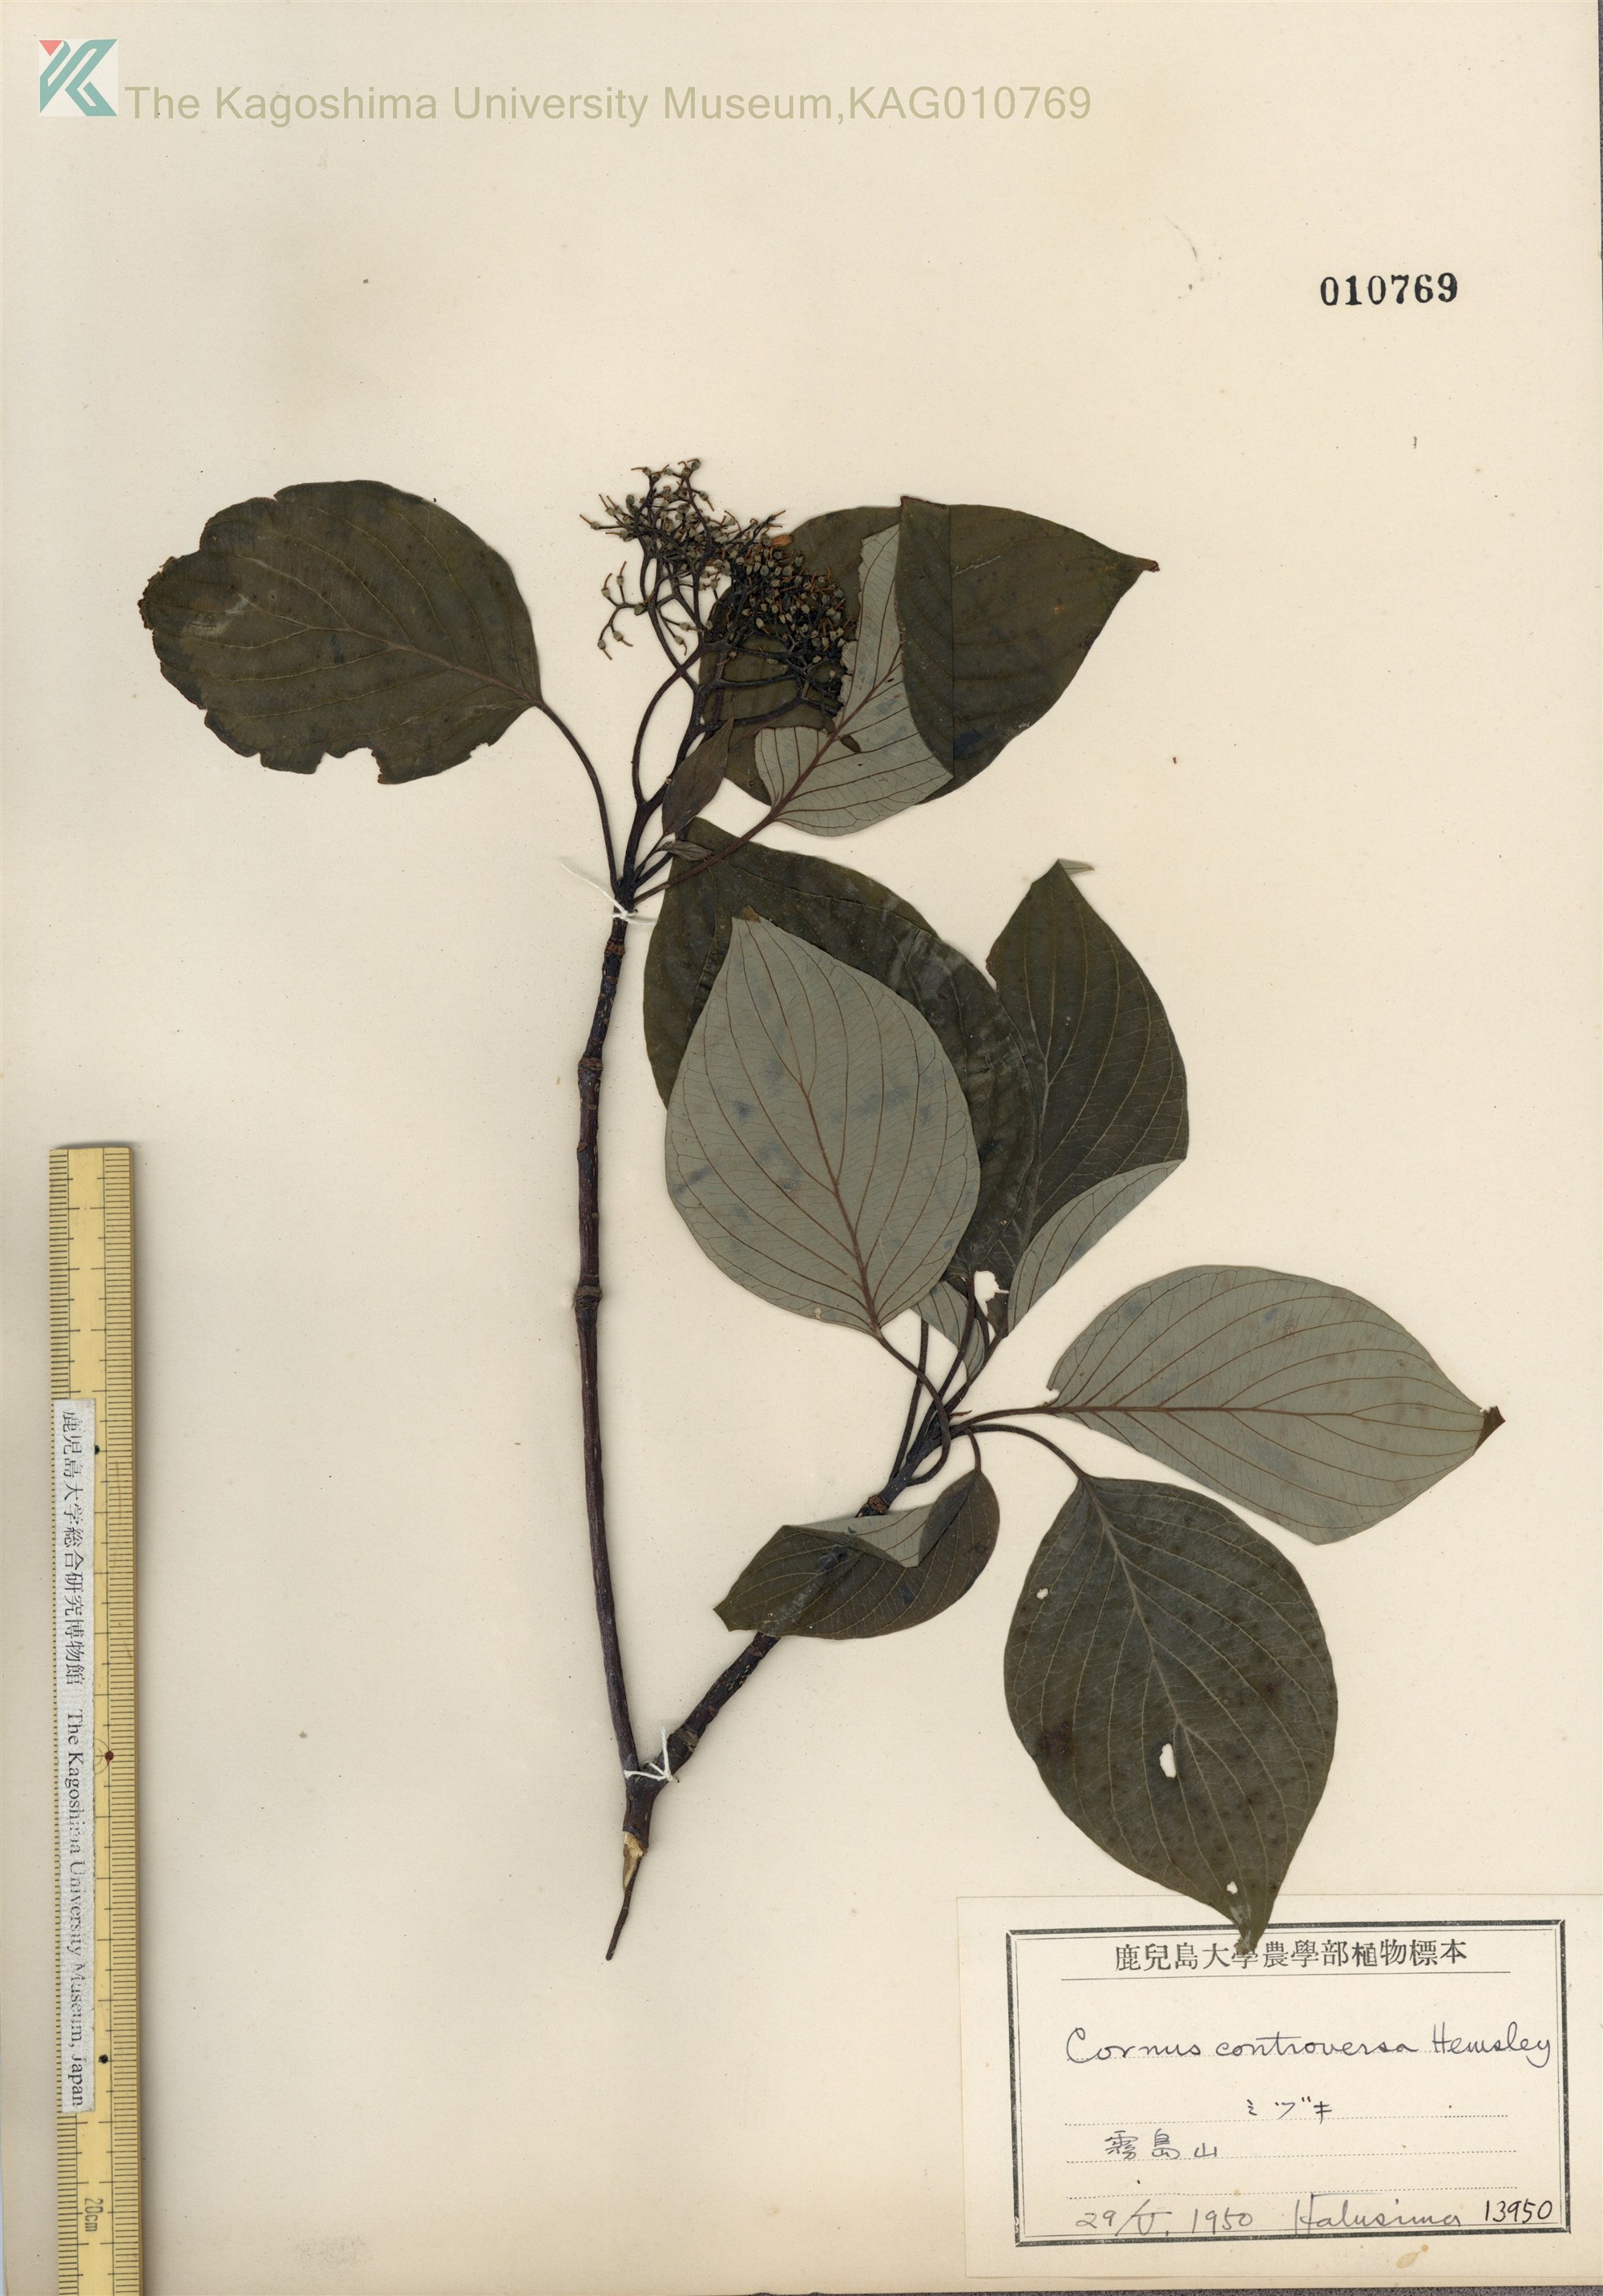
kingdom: Plantae
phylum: Tracheophyta
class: Magnoliopsida
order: Cornales
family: Cornaceae
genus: Cornus
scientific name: Cornus controversa
